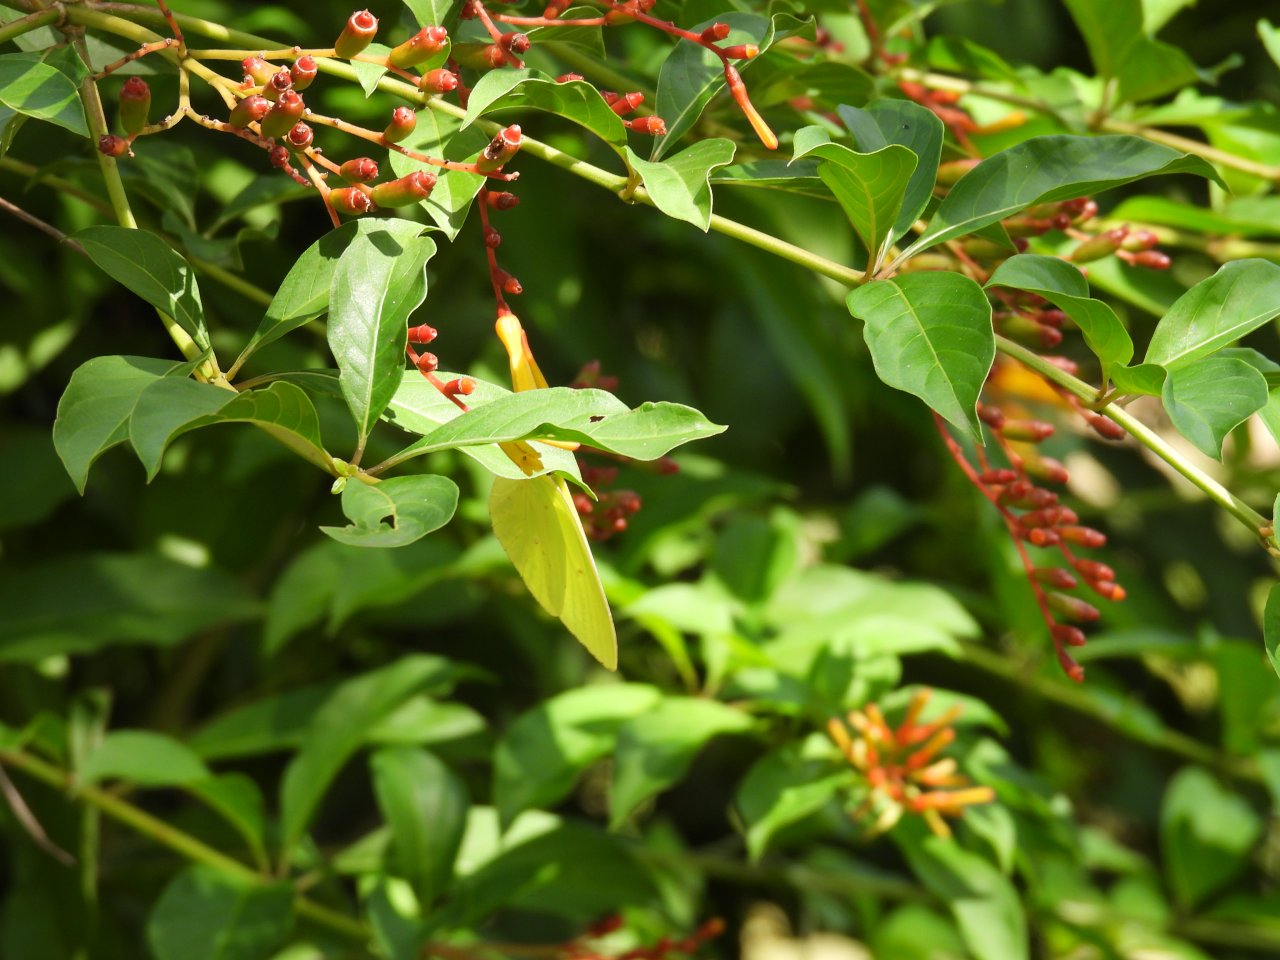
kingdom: Animalia
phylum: Arthropoda
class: Insecta
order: Lepidoptera
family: Pieridae
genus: Phoebis
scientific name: Phoebis sennae
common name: Cloudless Sulphur
